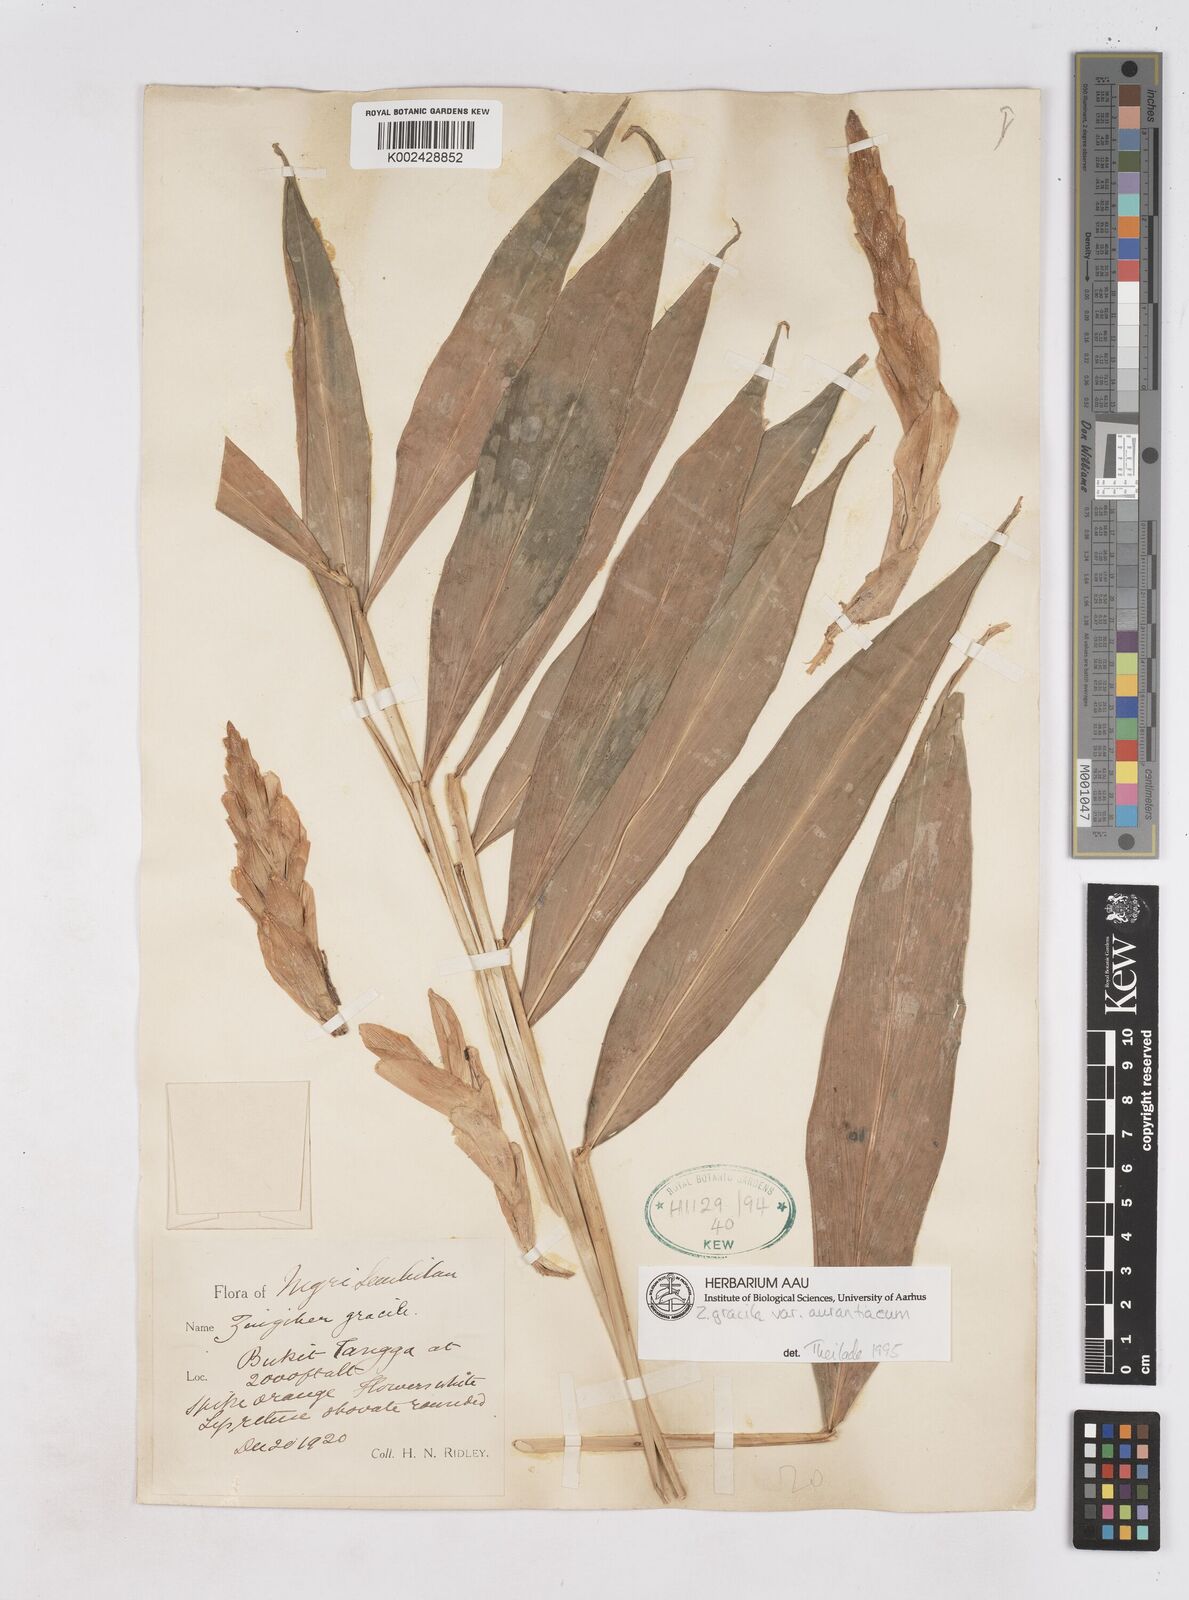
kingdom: Plantae
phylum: Tracheophyta
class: Liliopsida
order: Zingiberales
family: Zingiberaceae
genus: Zingiber
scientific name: Zingiber gracile
